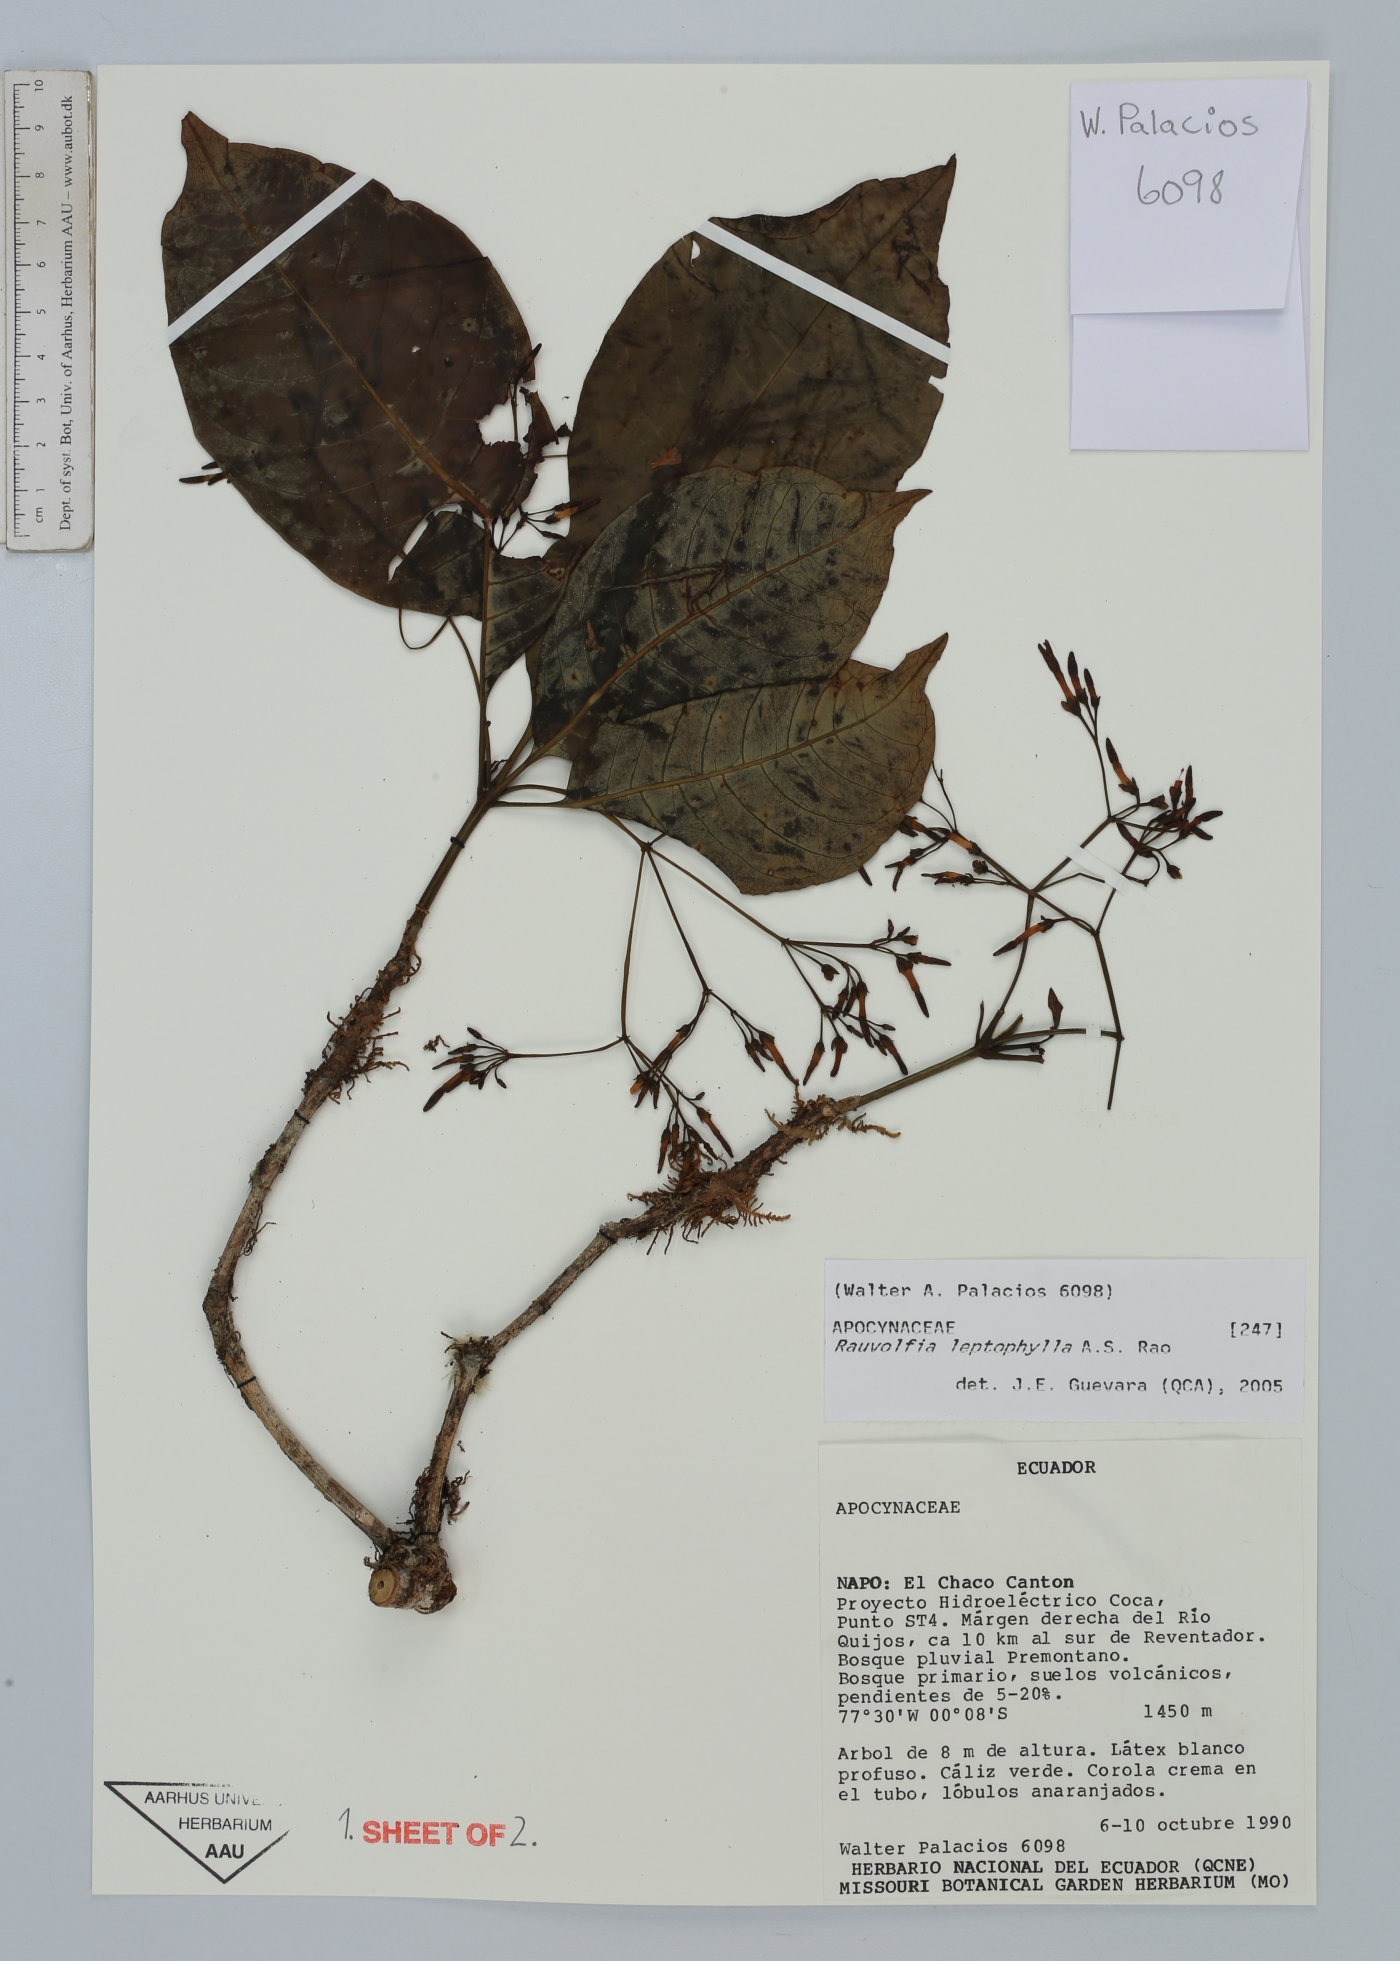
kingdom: Plantae
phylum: Tracheophyta
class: Magnoliopsida
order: Gentianales
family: Apocynaceae
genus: Rauvolfia
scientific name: Rauvolfia leptophylla
